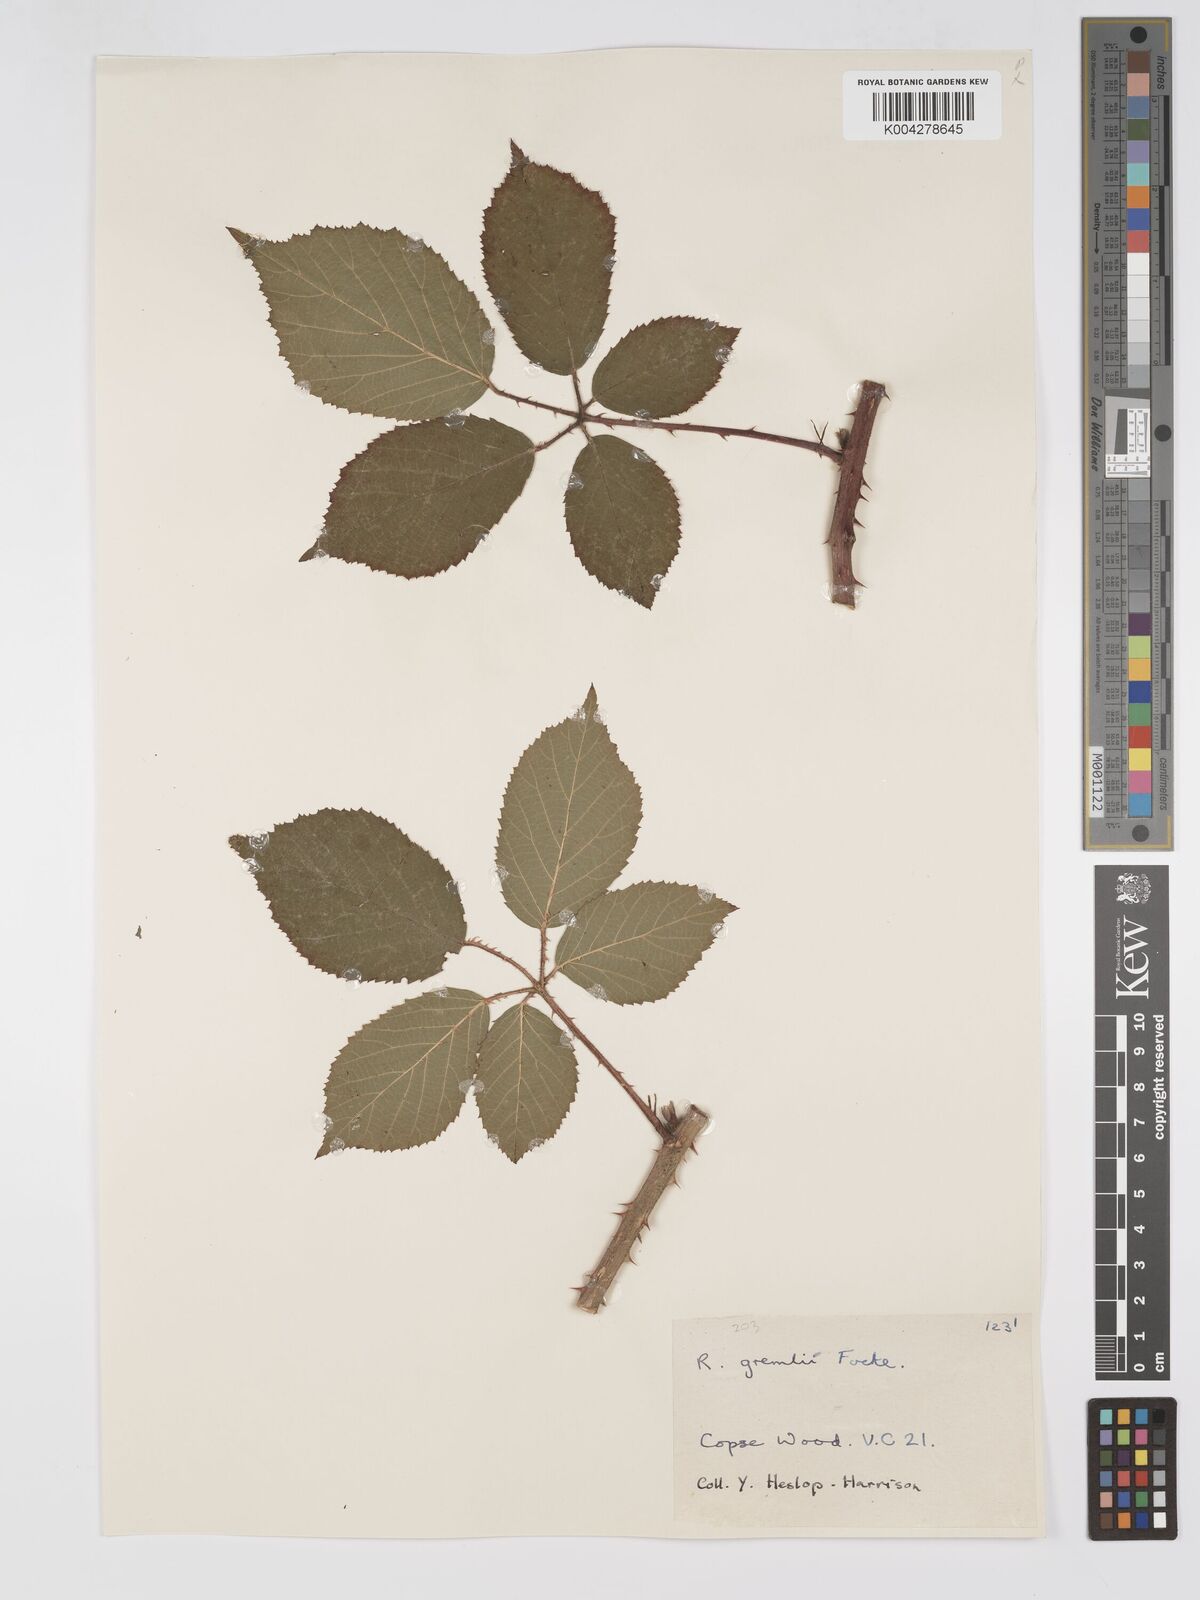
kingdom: Plantae
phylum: Tracheophyta
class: Magnoliopsida
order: Rosales
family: Rosaceae
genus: Rubus
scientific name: Rubus gremlii
